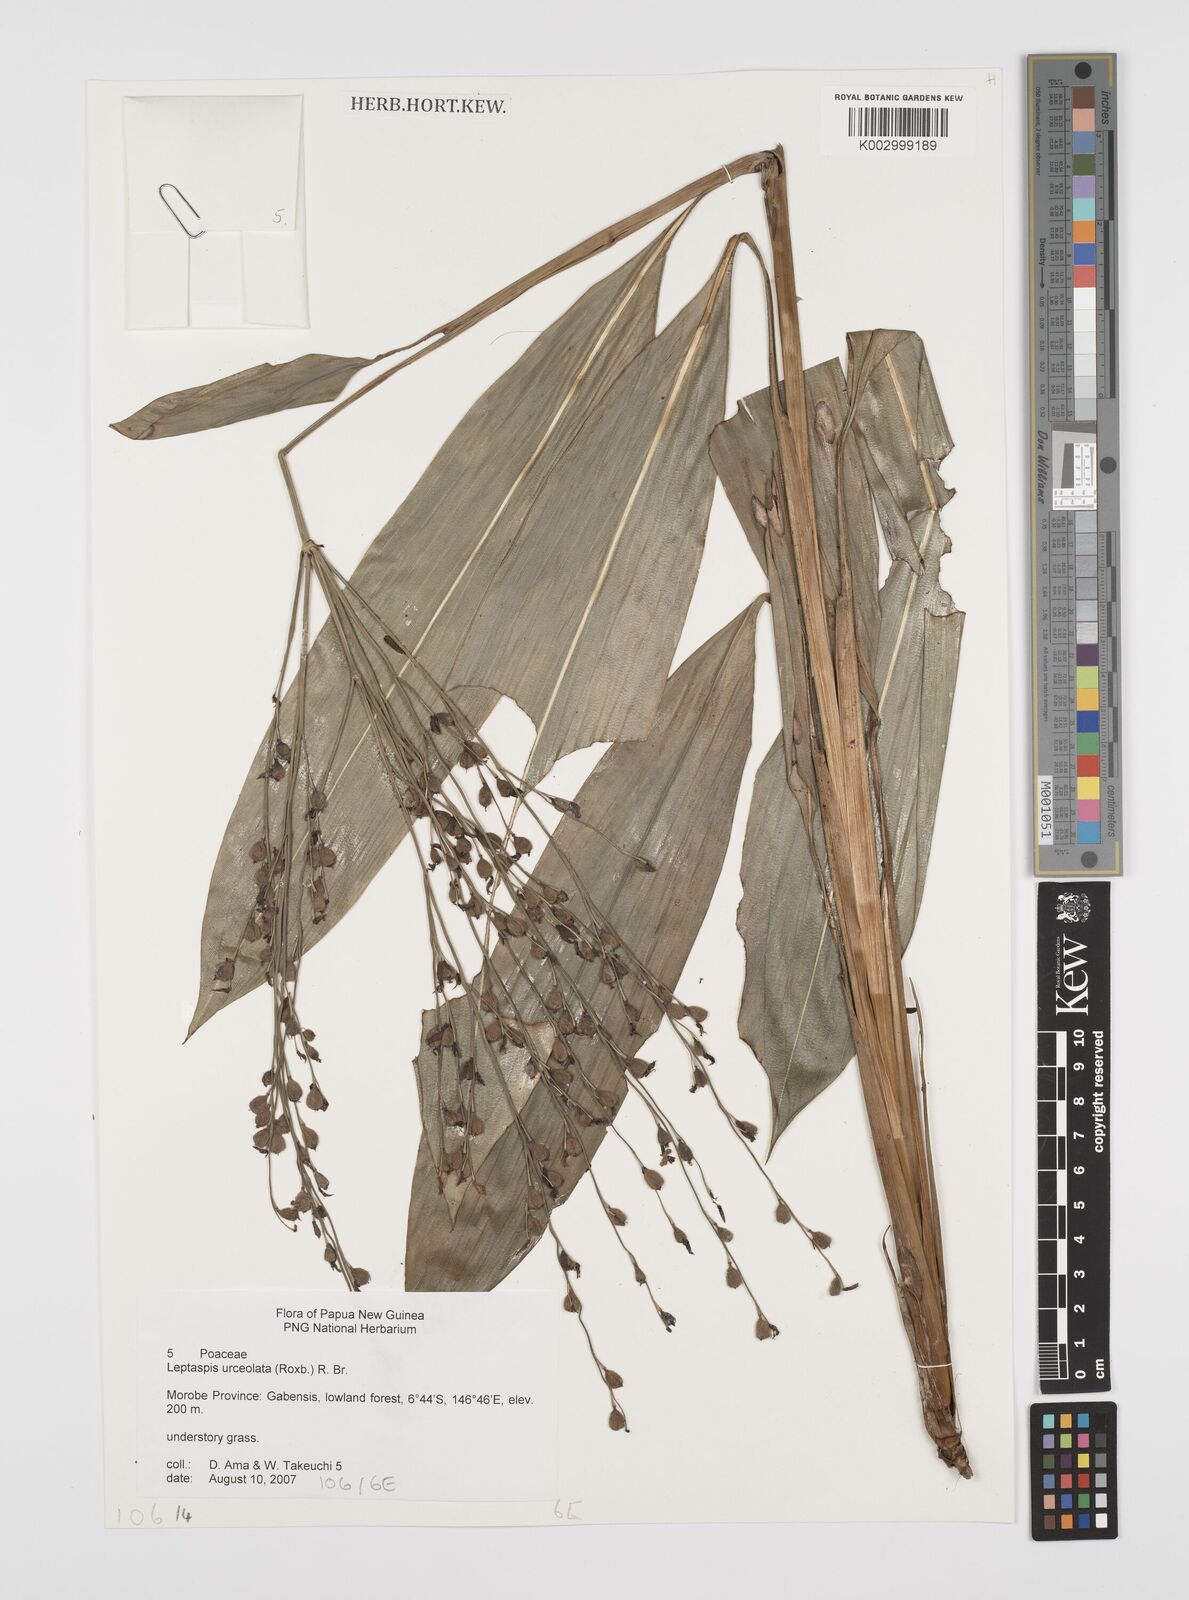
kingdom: Plantae
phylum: Tracheophyta
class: Liliopsida
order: Poales
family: Poaceae
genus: Scrotochloa
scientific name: Scrotochloa urceolata
